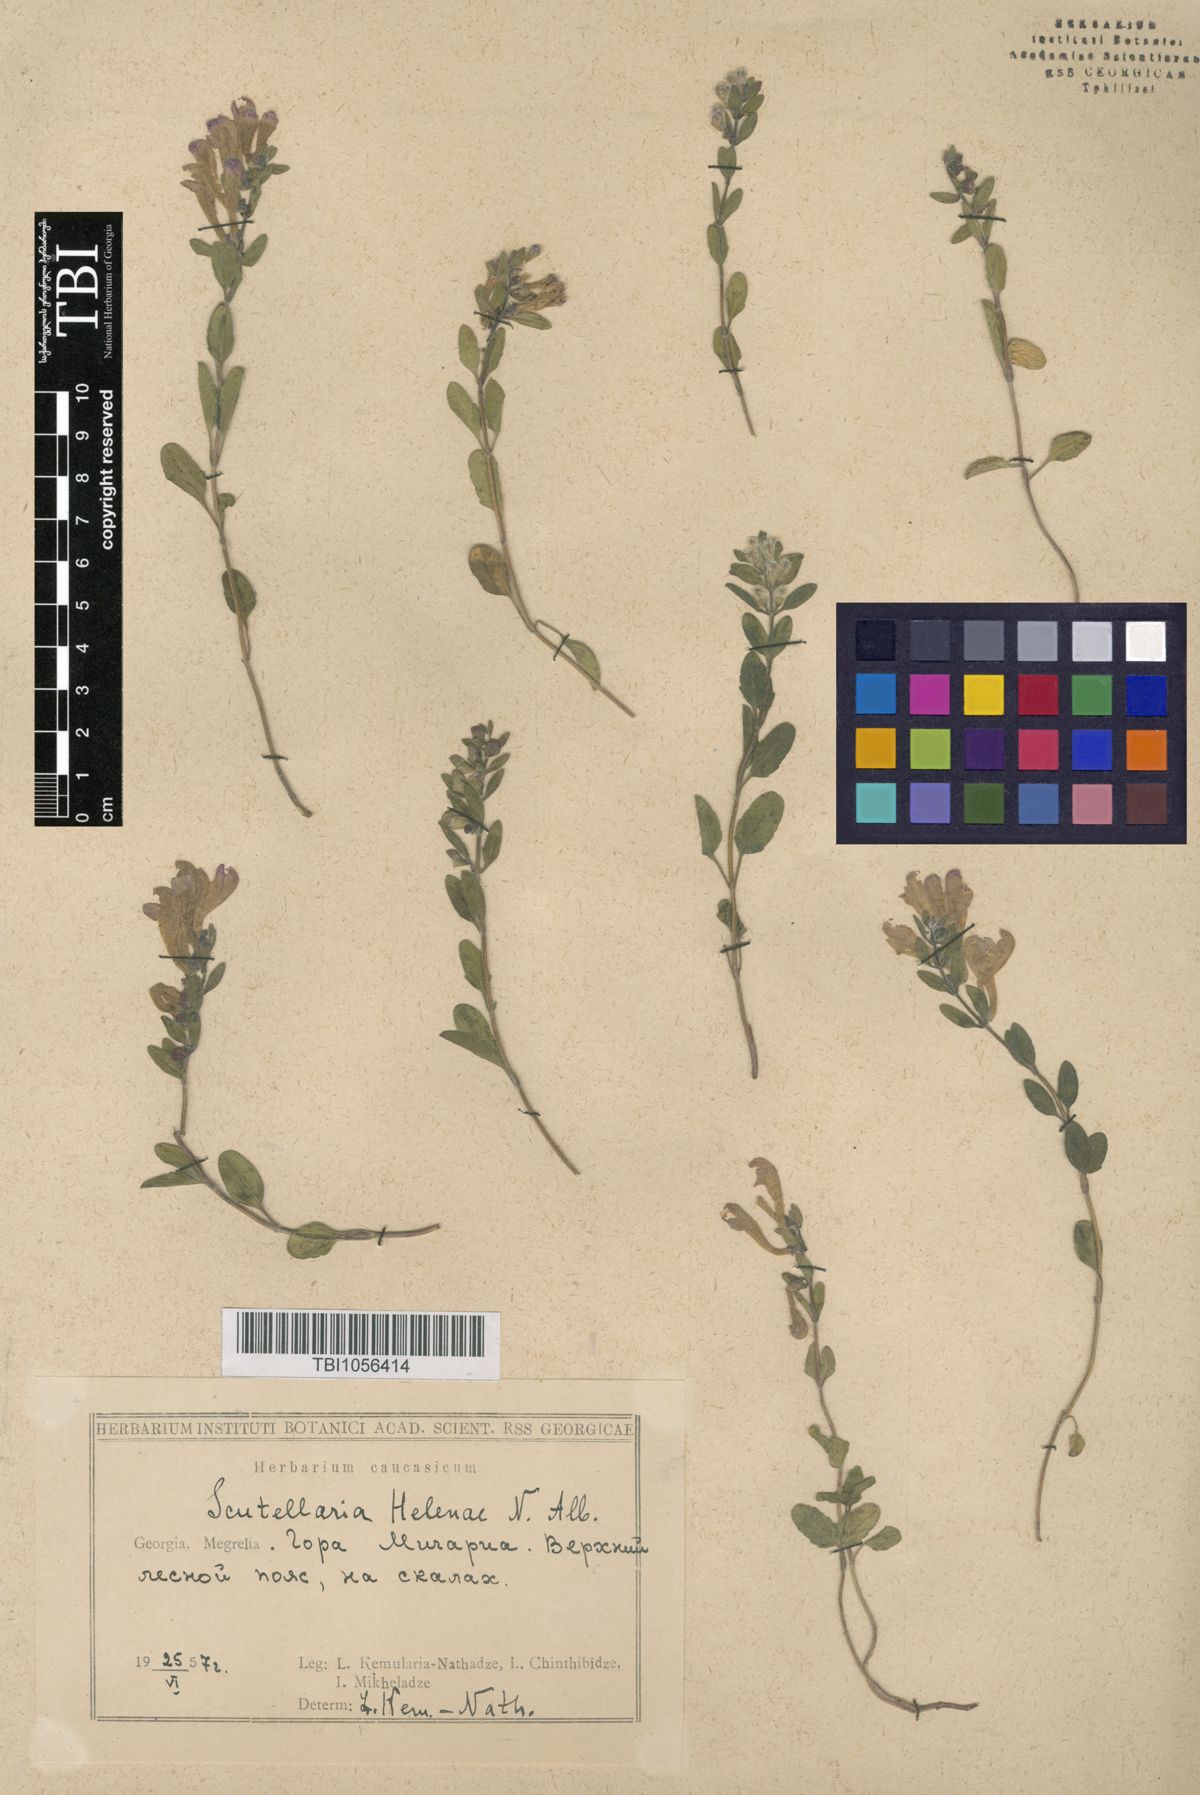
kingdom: Plantae
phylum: Tracheophyta
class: Magnoliopsida
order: Lamiales
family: Lamiaceae
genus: Scutellaria
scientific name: Scutellaria helenae
